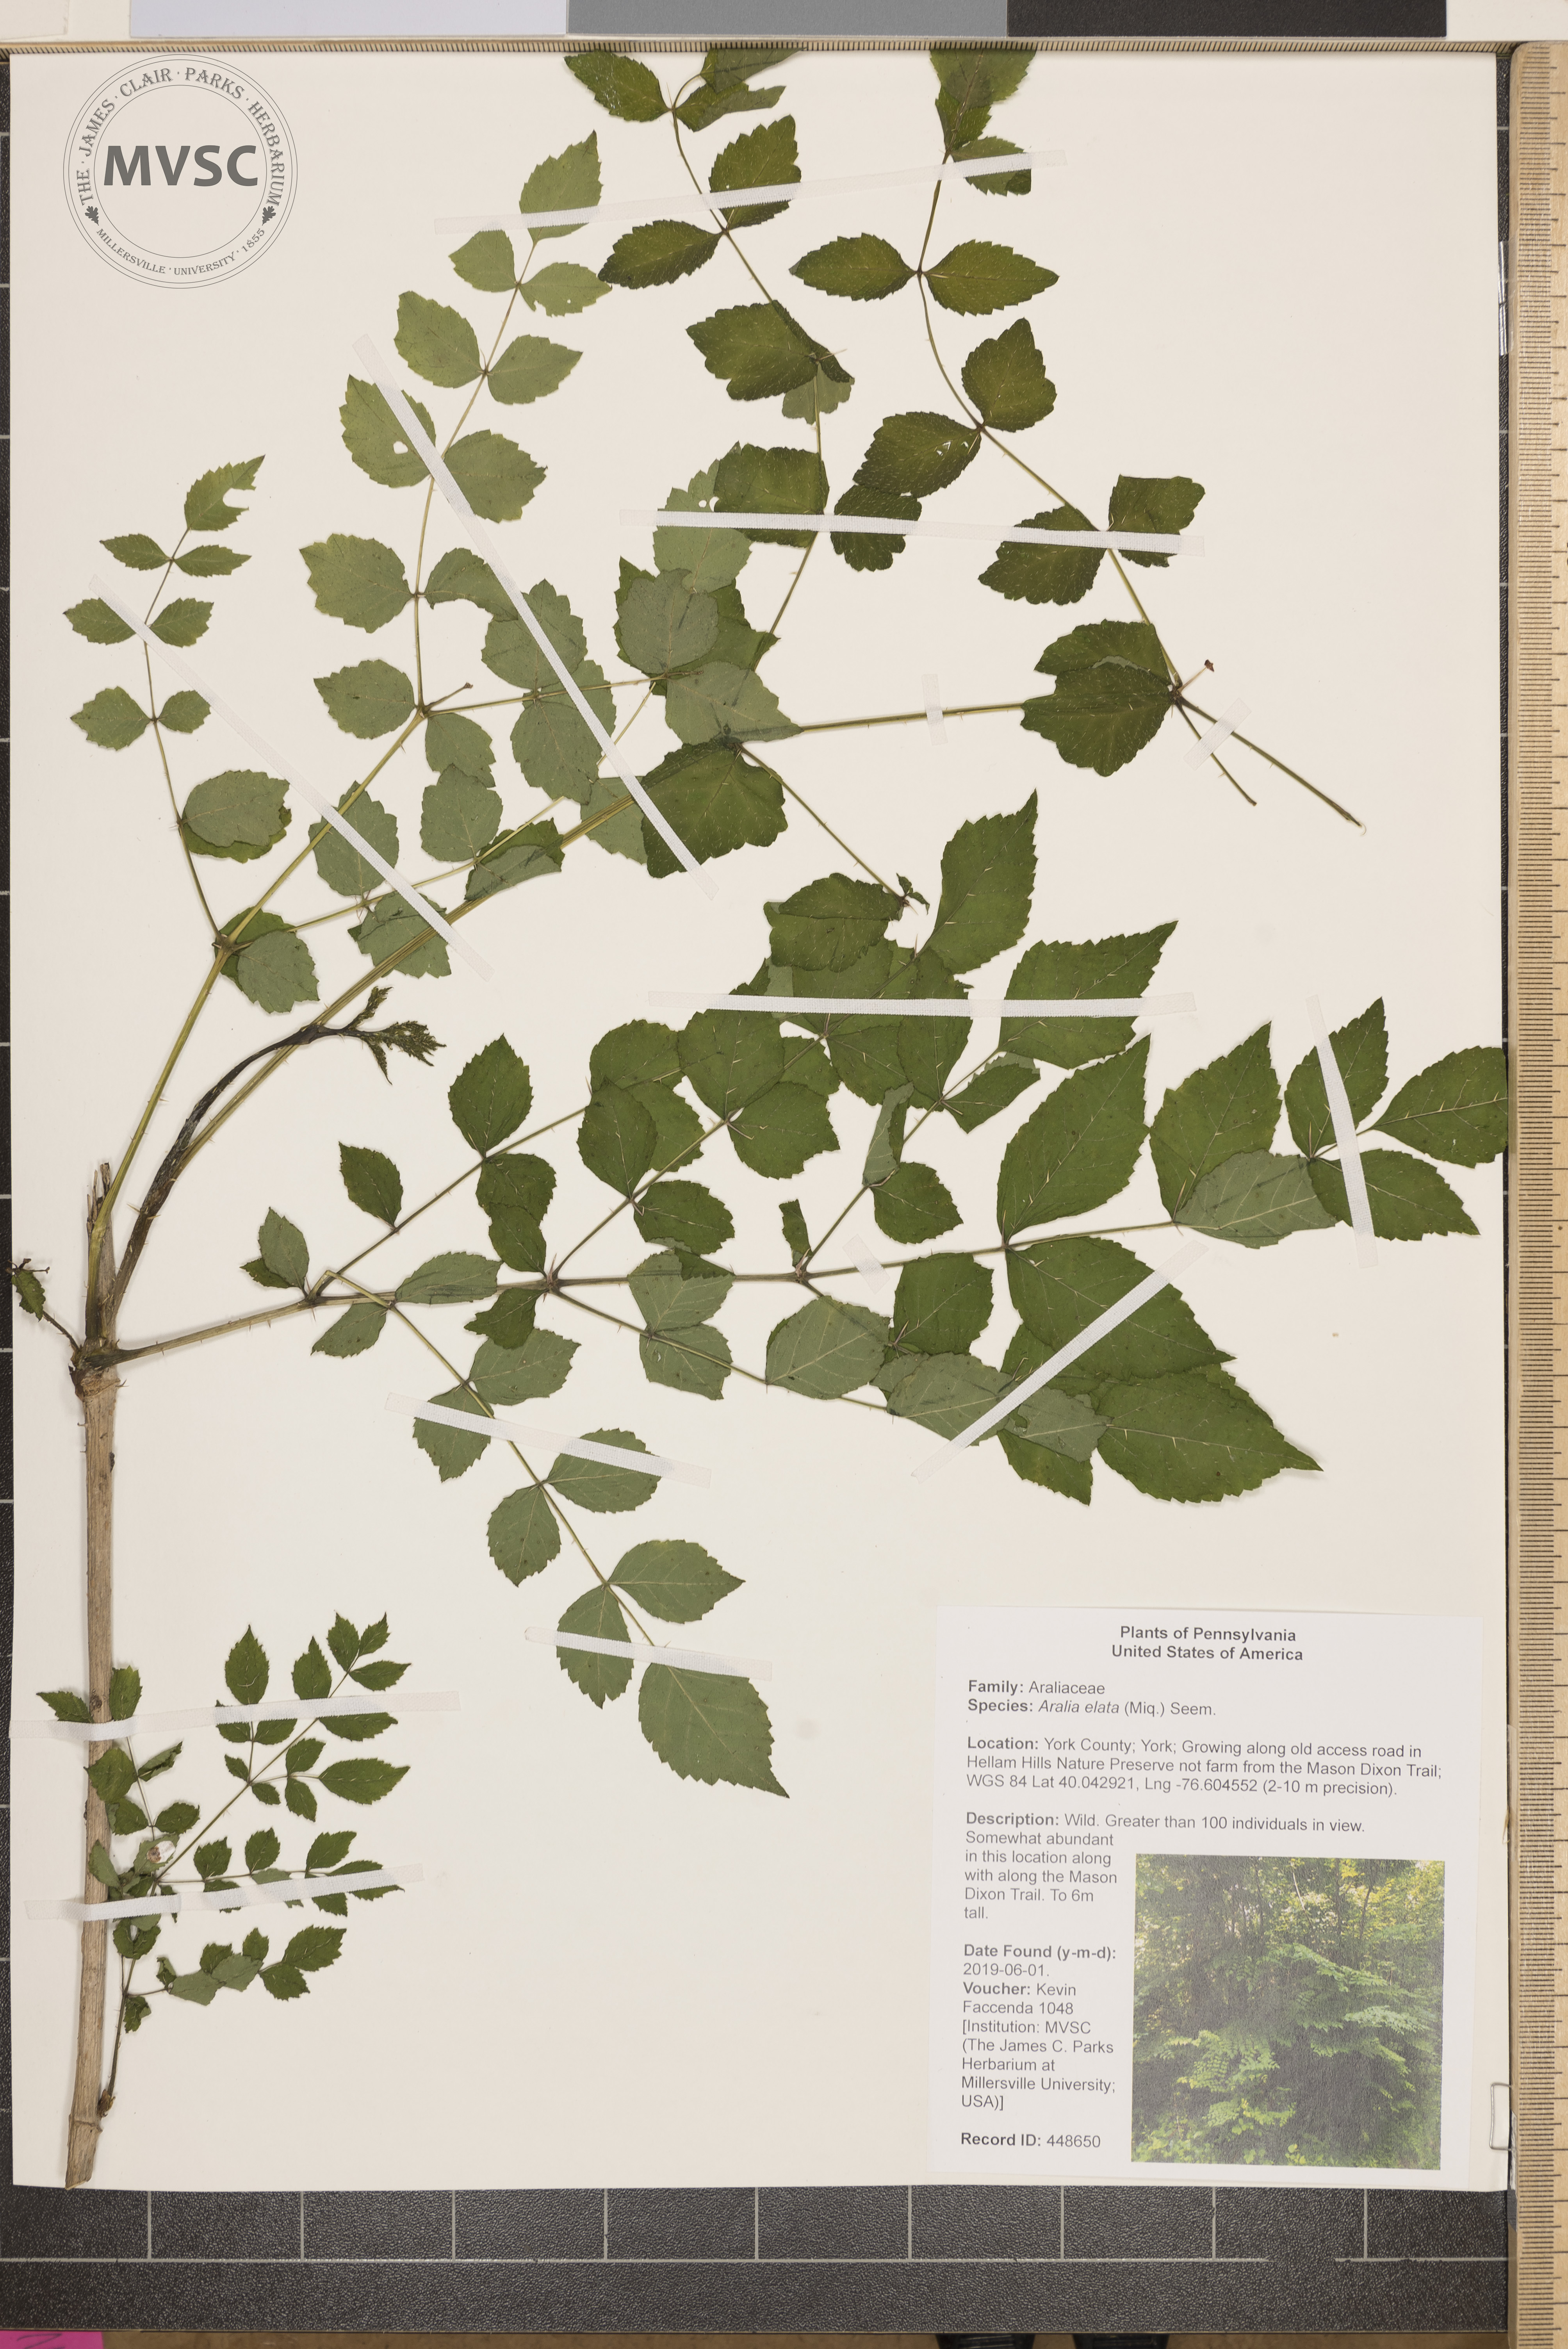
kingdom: Plantae
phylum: Tracheophyta
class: Magnoliopsida
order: Apiales
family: Araliaceae
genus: Aralia
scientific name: Aralia elata
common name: Japanese angelica-tree
